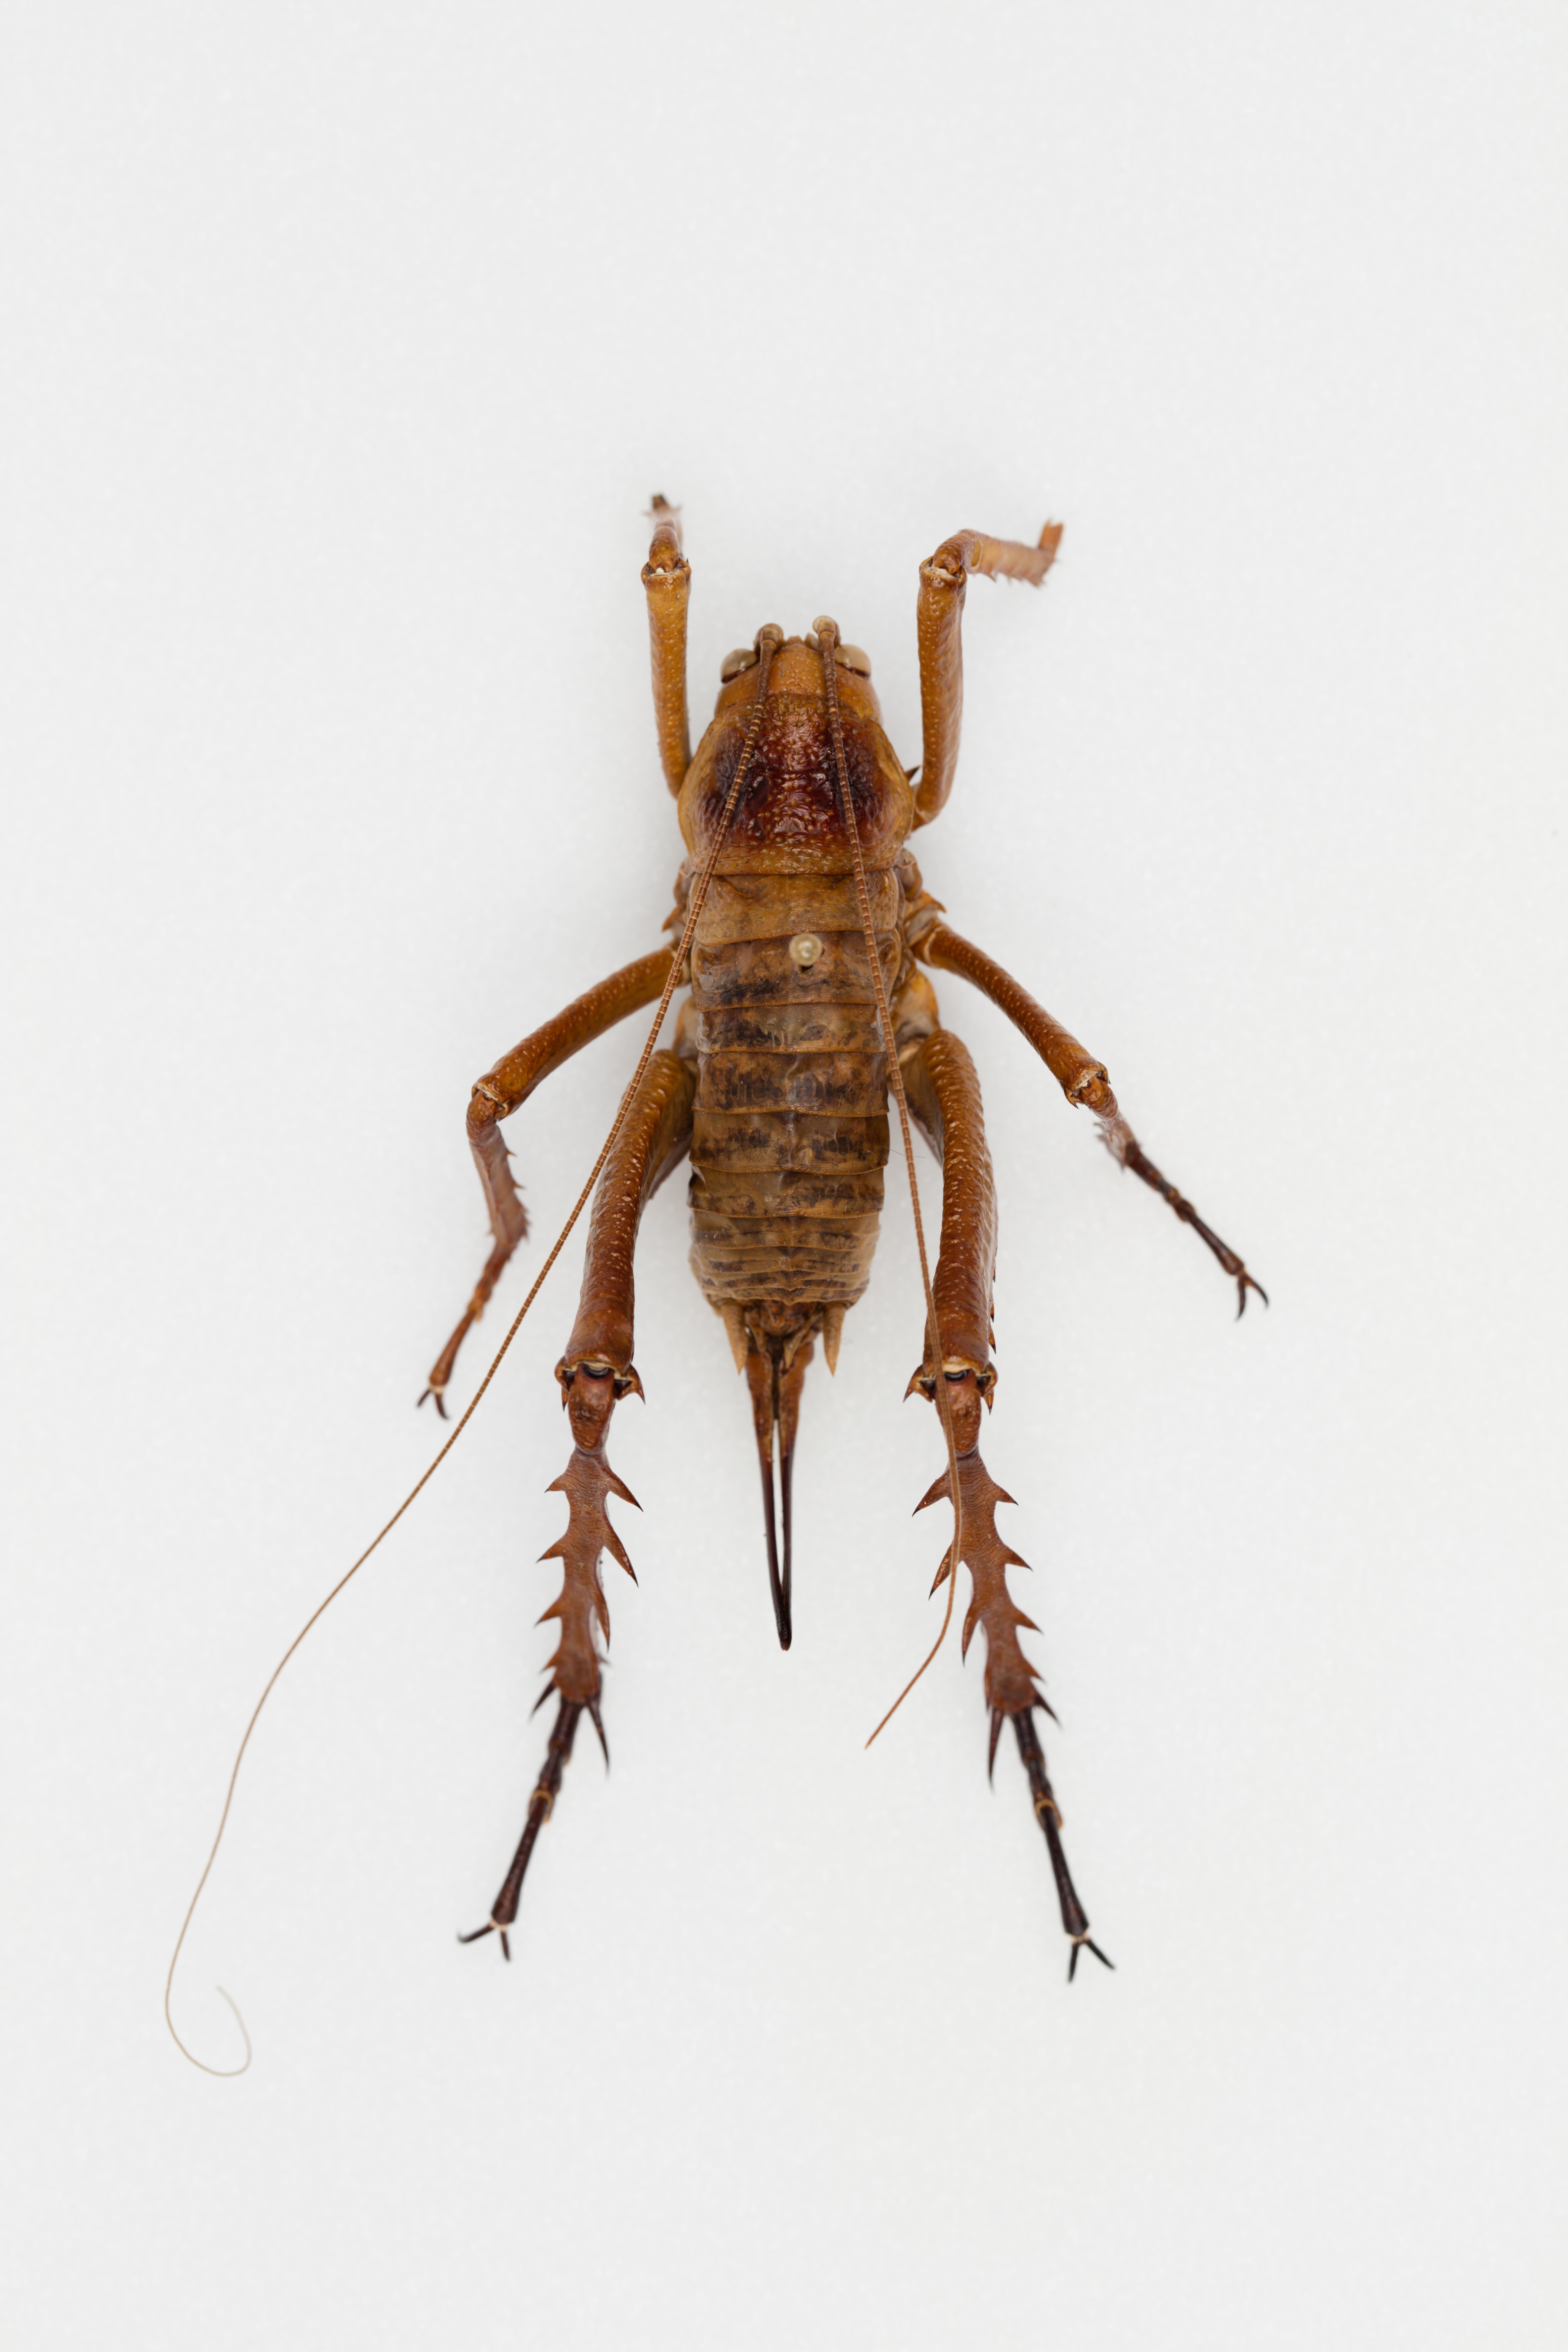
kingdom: Animalia
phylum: Arthropoda
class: Insecta
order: Orthoptera
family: Anostostomatidae
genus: Deinacrida
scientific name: Deinacrida mahoenui
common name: Mahoenui giant weta
